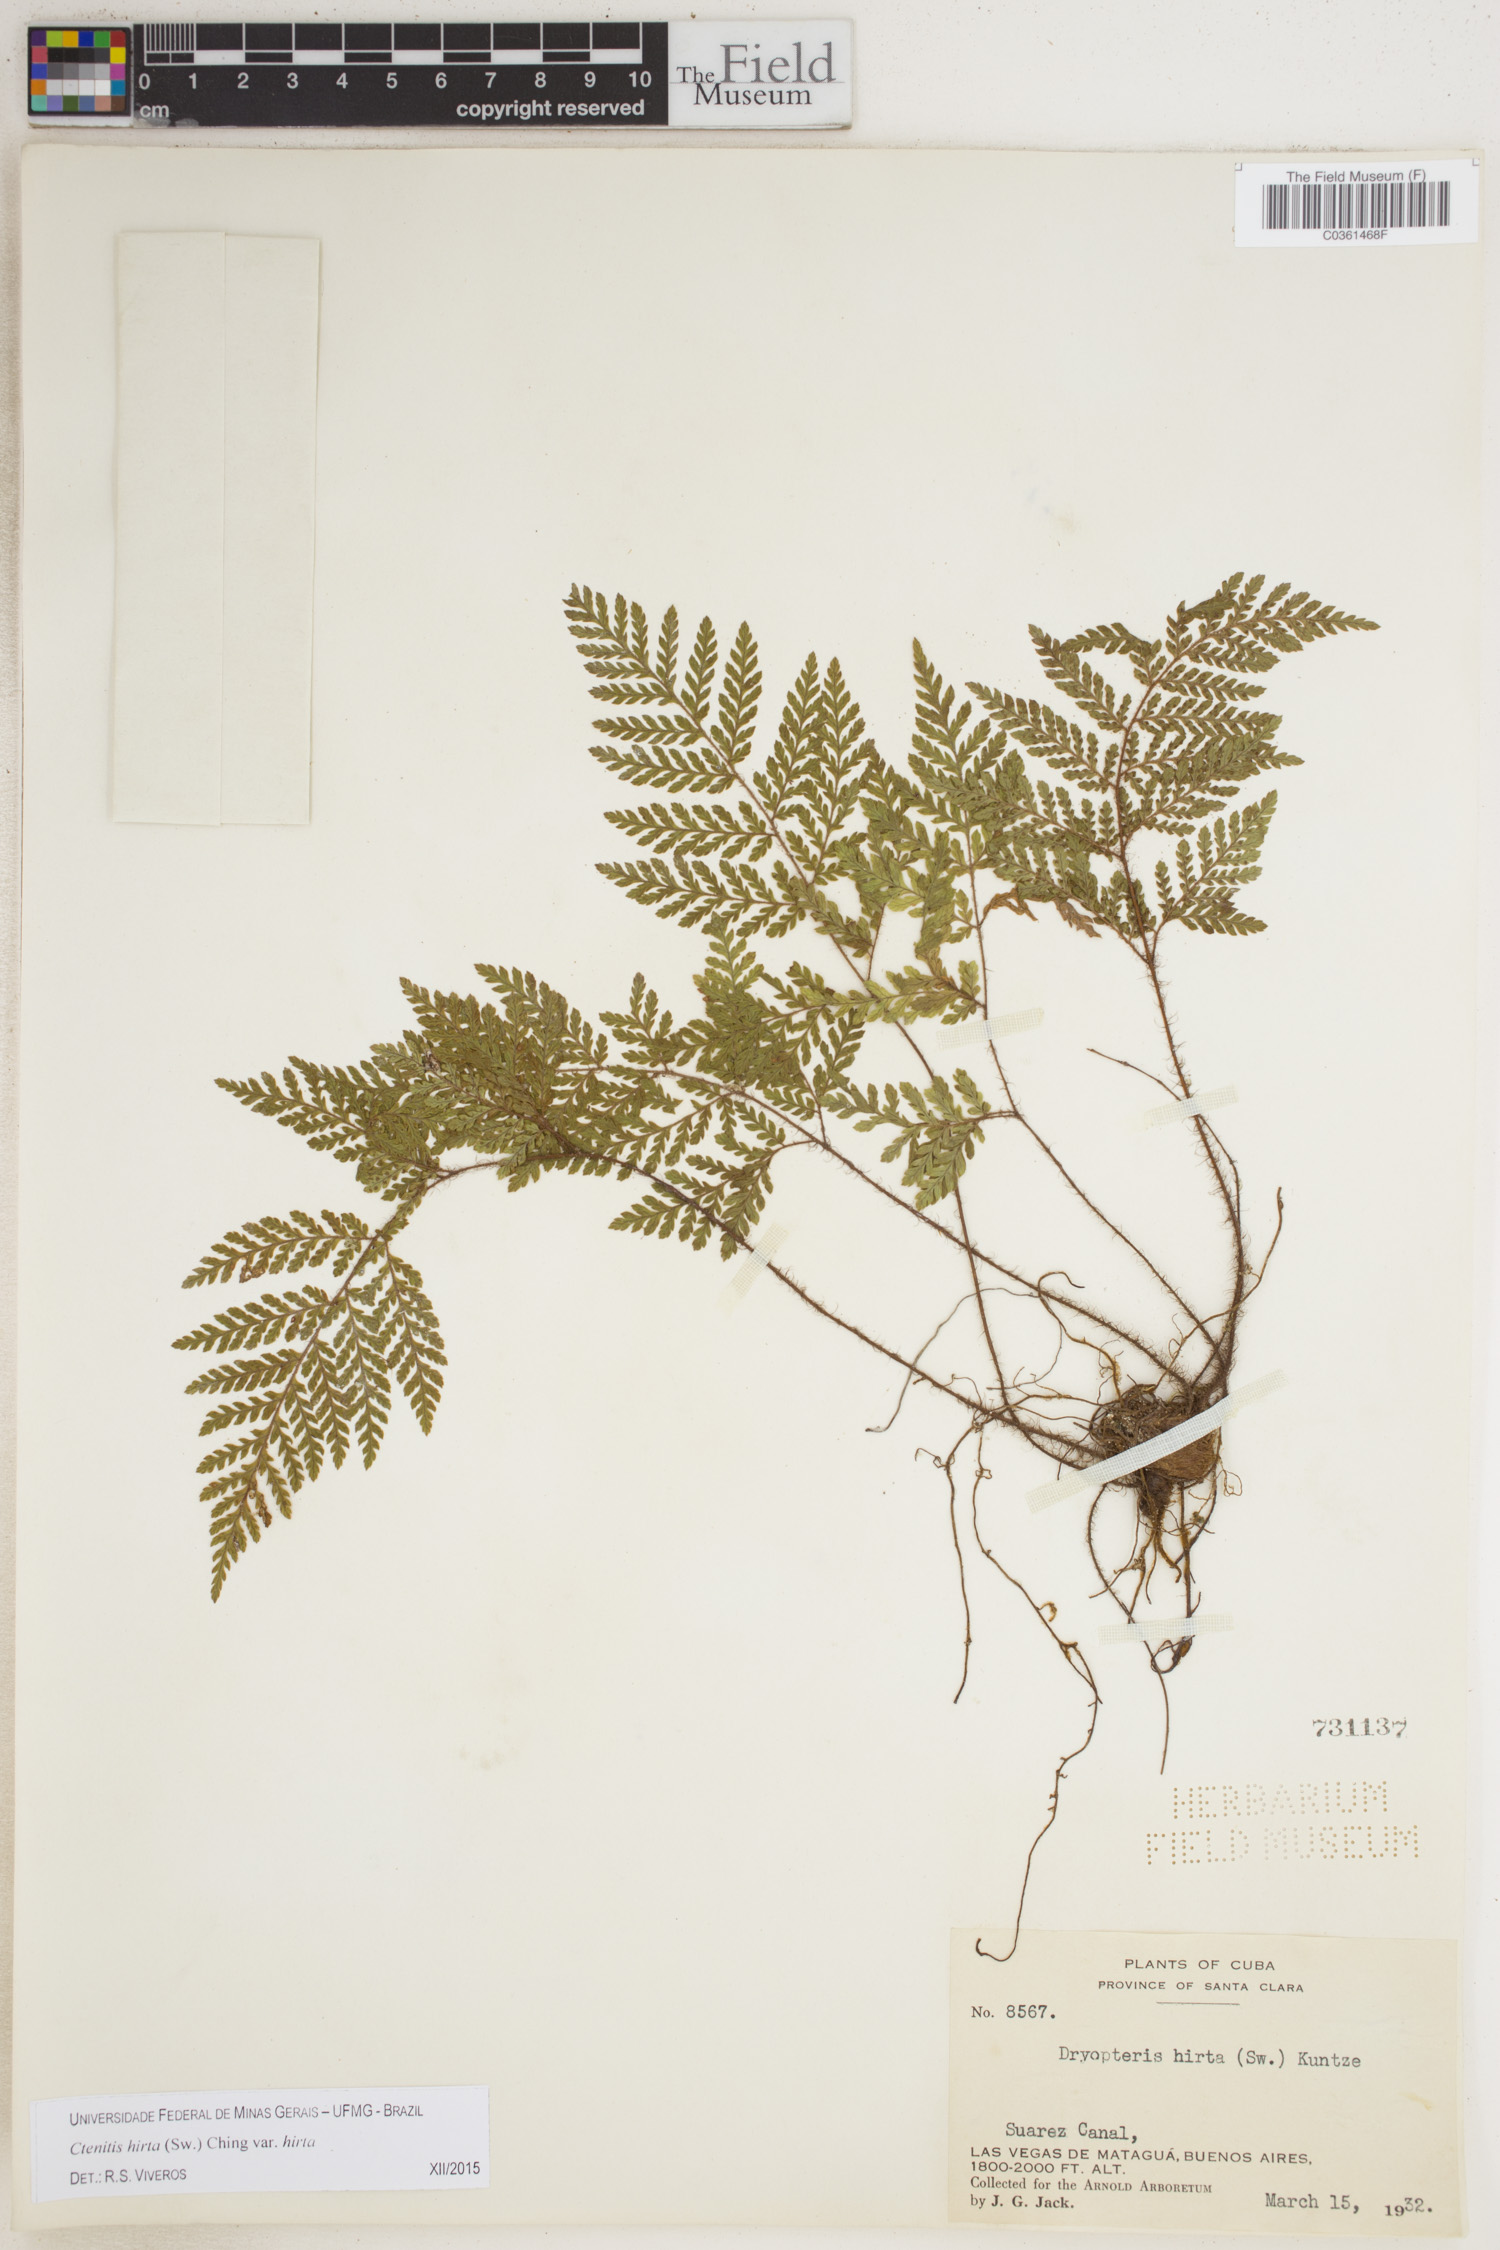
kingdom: Plantae
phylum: Tracheophyta
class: Polypodiopsida
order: Polypodiales
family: Dryopteridaceae
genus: Ctenitis
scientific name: Ctenitis hirta
